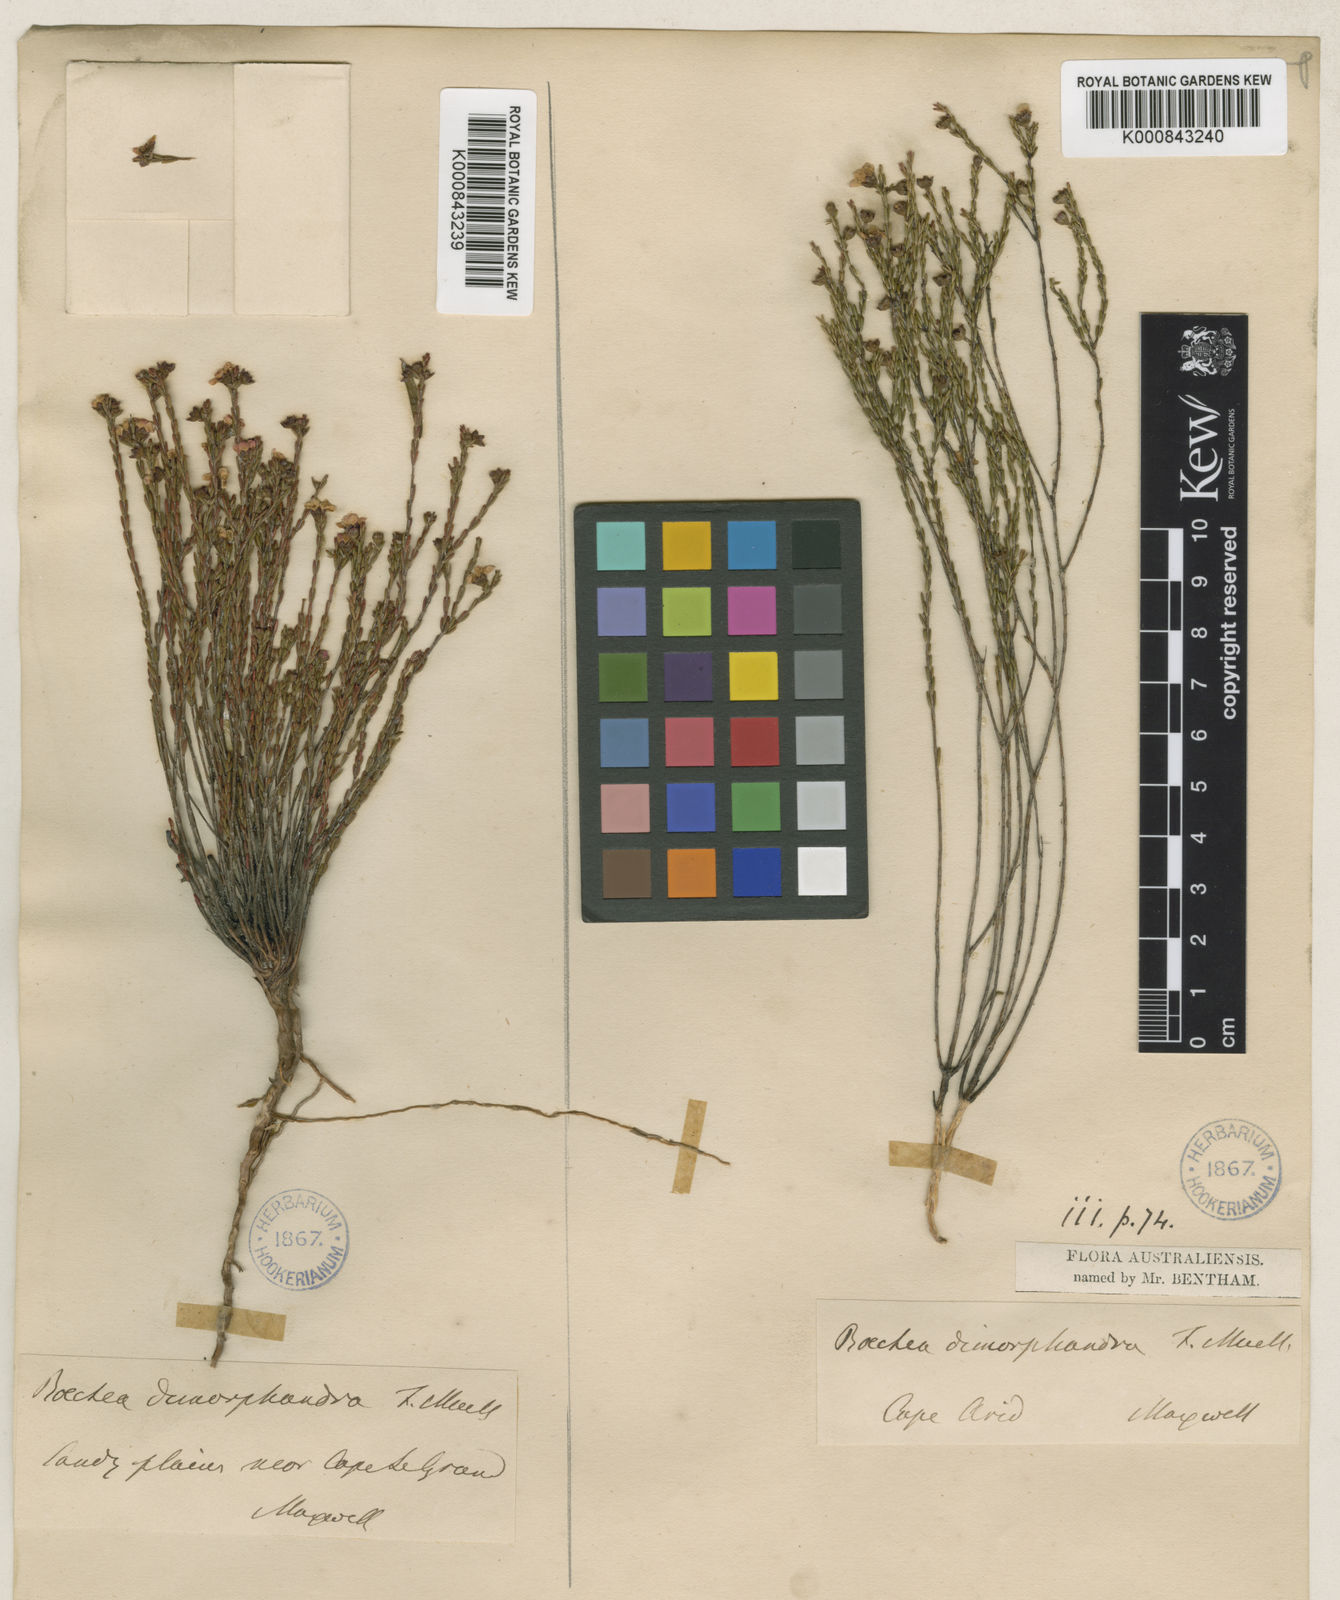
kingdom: Plantae
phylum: Tracheophyta
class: Magnoliopsida
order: Myrtales
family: Myrtaceae
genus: Rinzia
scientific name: Rinzia dimorphandra
